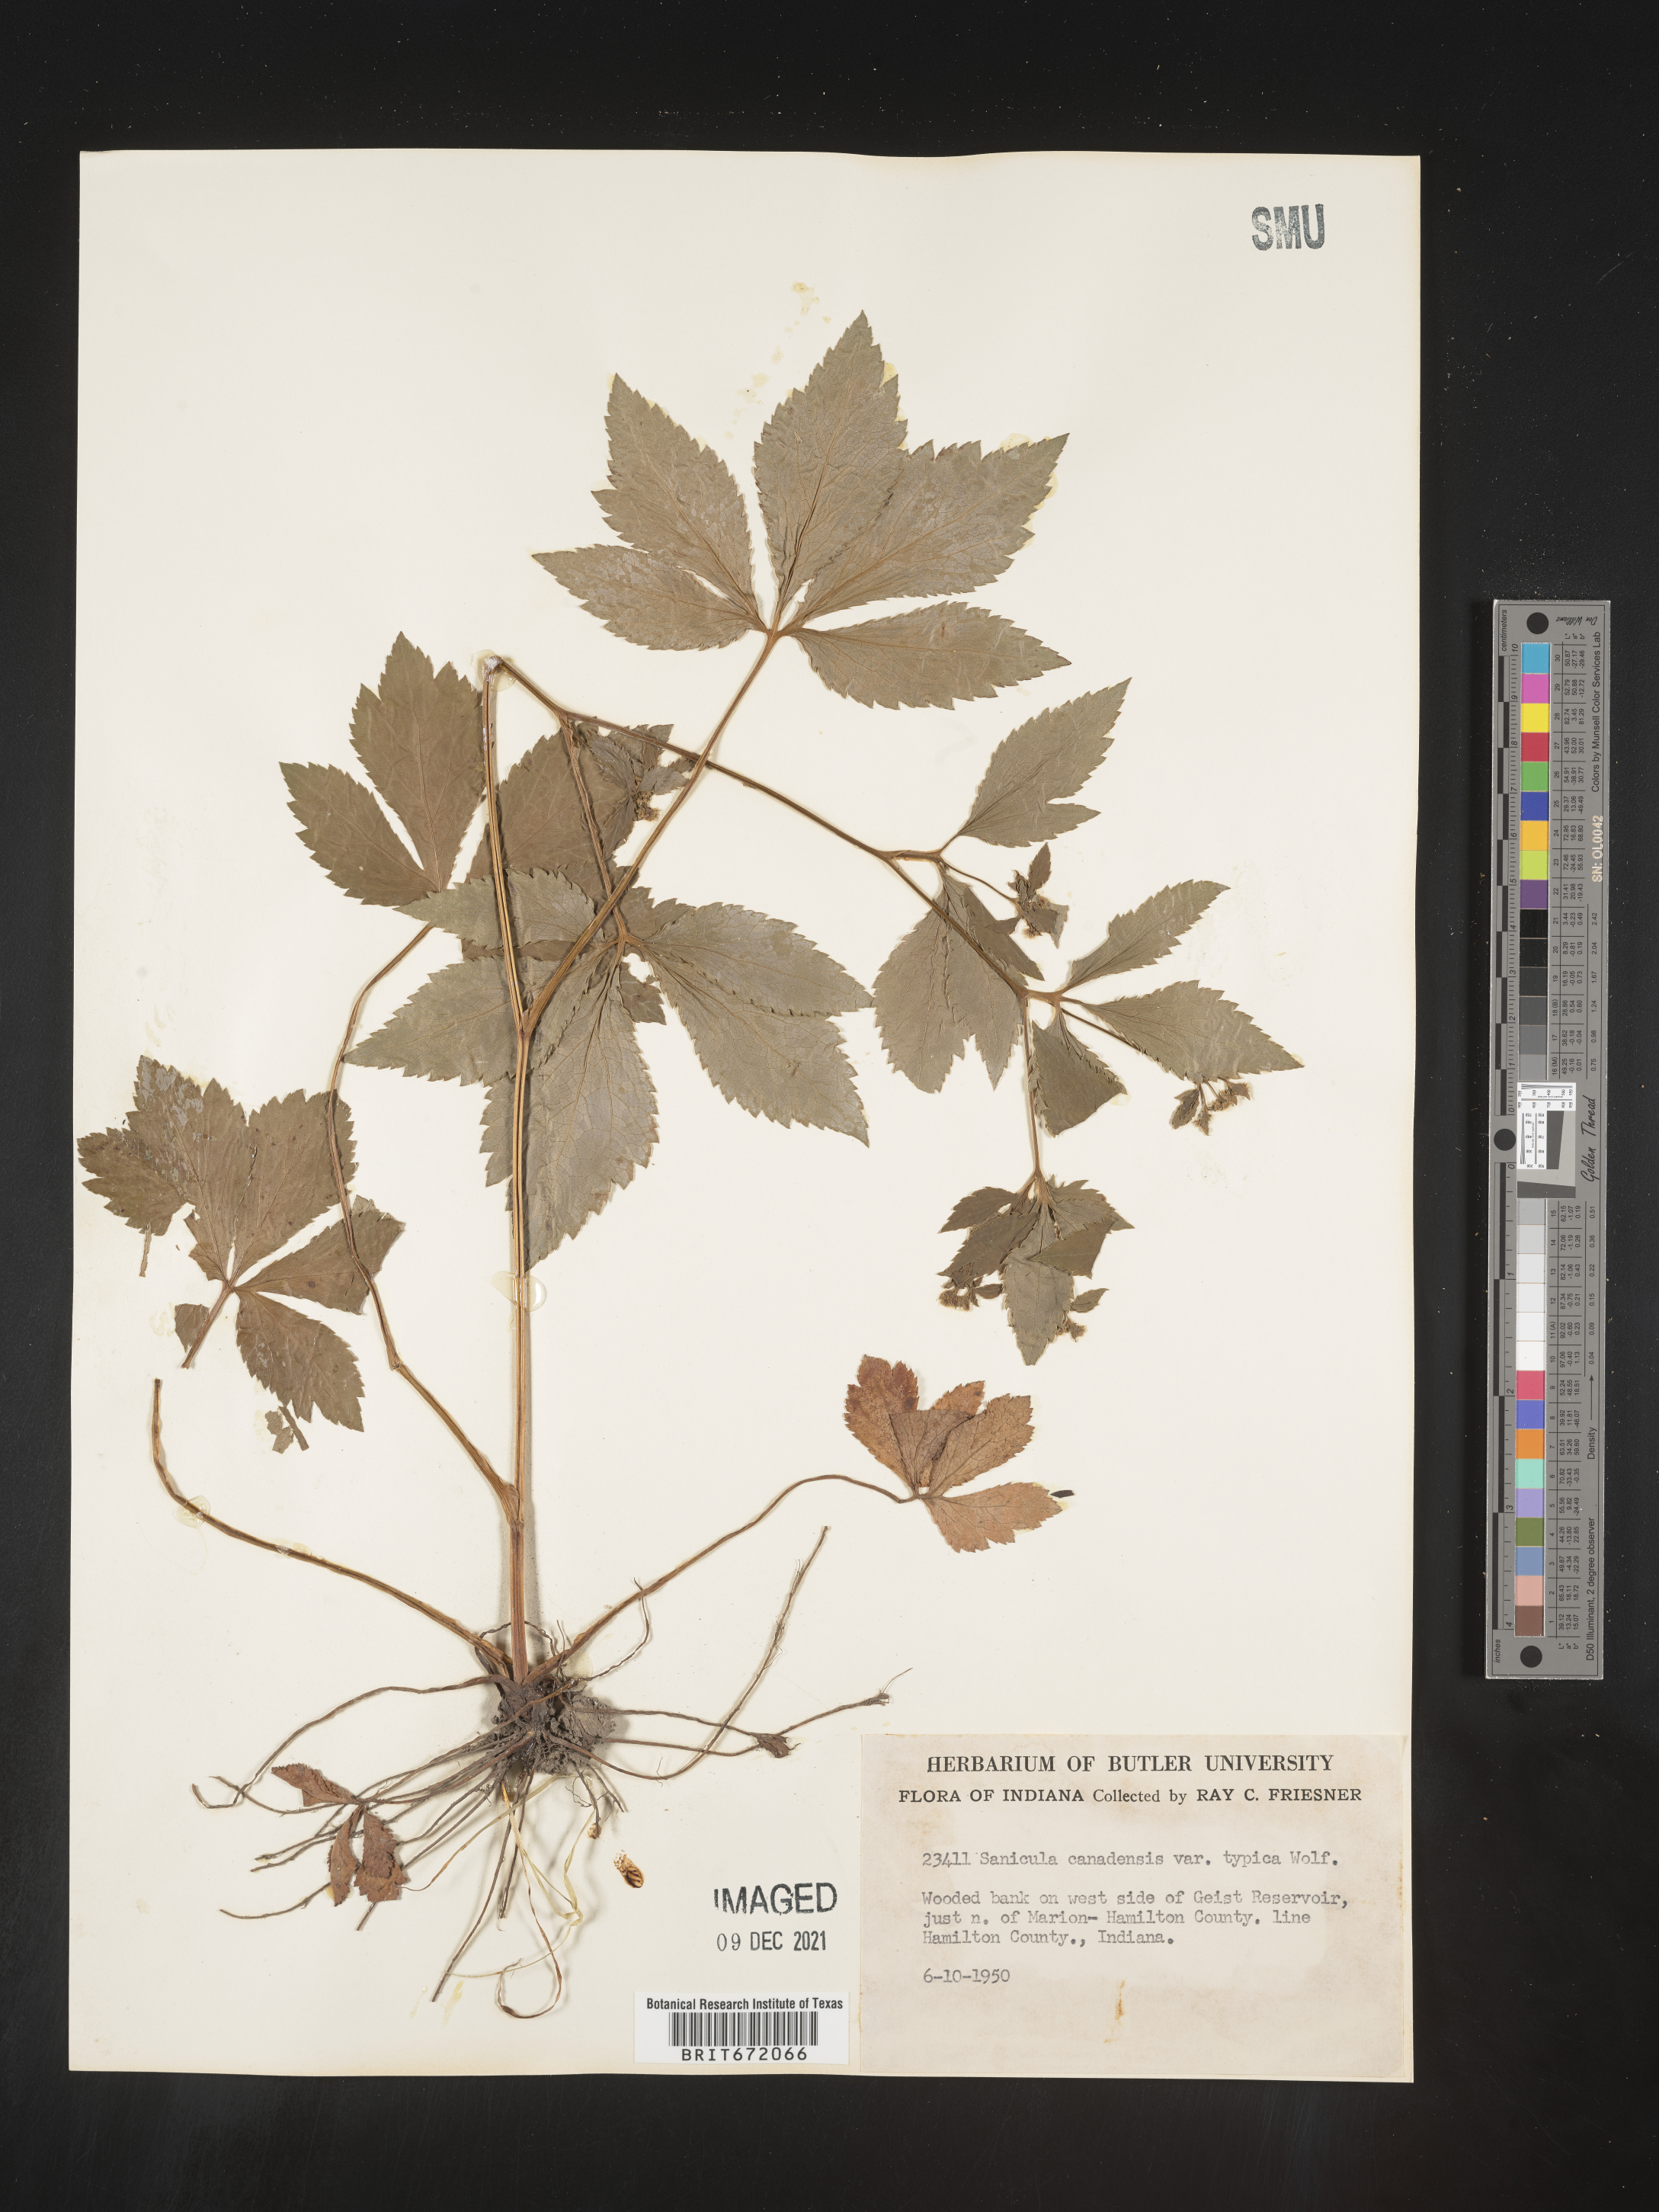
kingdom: Plantae
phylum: Tracheophyta
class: Magnoliopsida
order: Apiales
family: Apiaceae
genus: Sanicula
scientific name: Sanicula canadensis
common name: Canada sanicle
